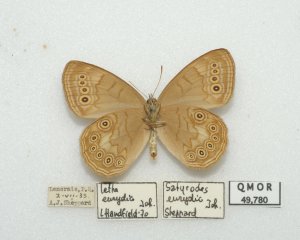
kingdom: Animalia
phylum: Arthropoda
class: Insecta
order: Lepidoptera
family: Nymphalidae
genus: Lethe
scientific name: Lethe eurydice
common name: Eyed Brown
